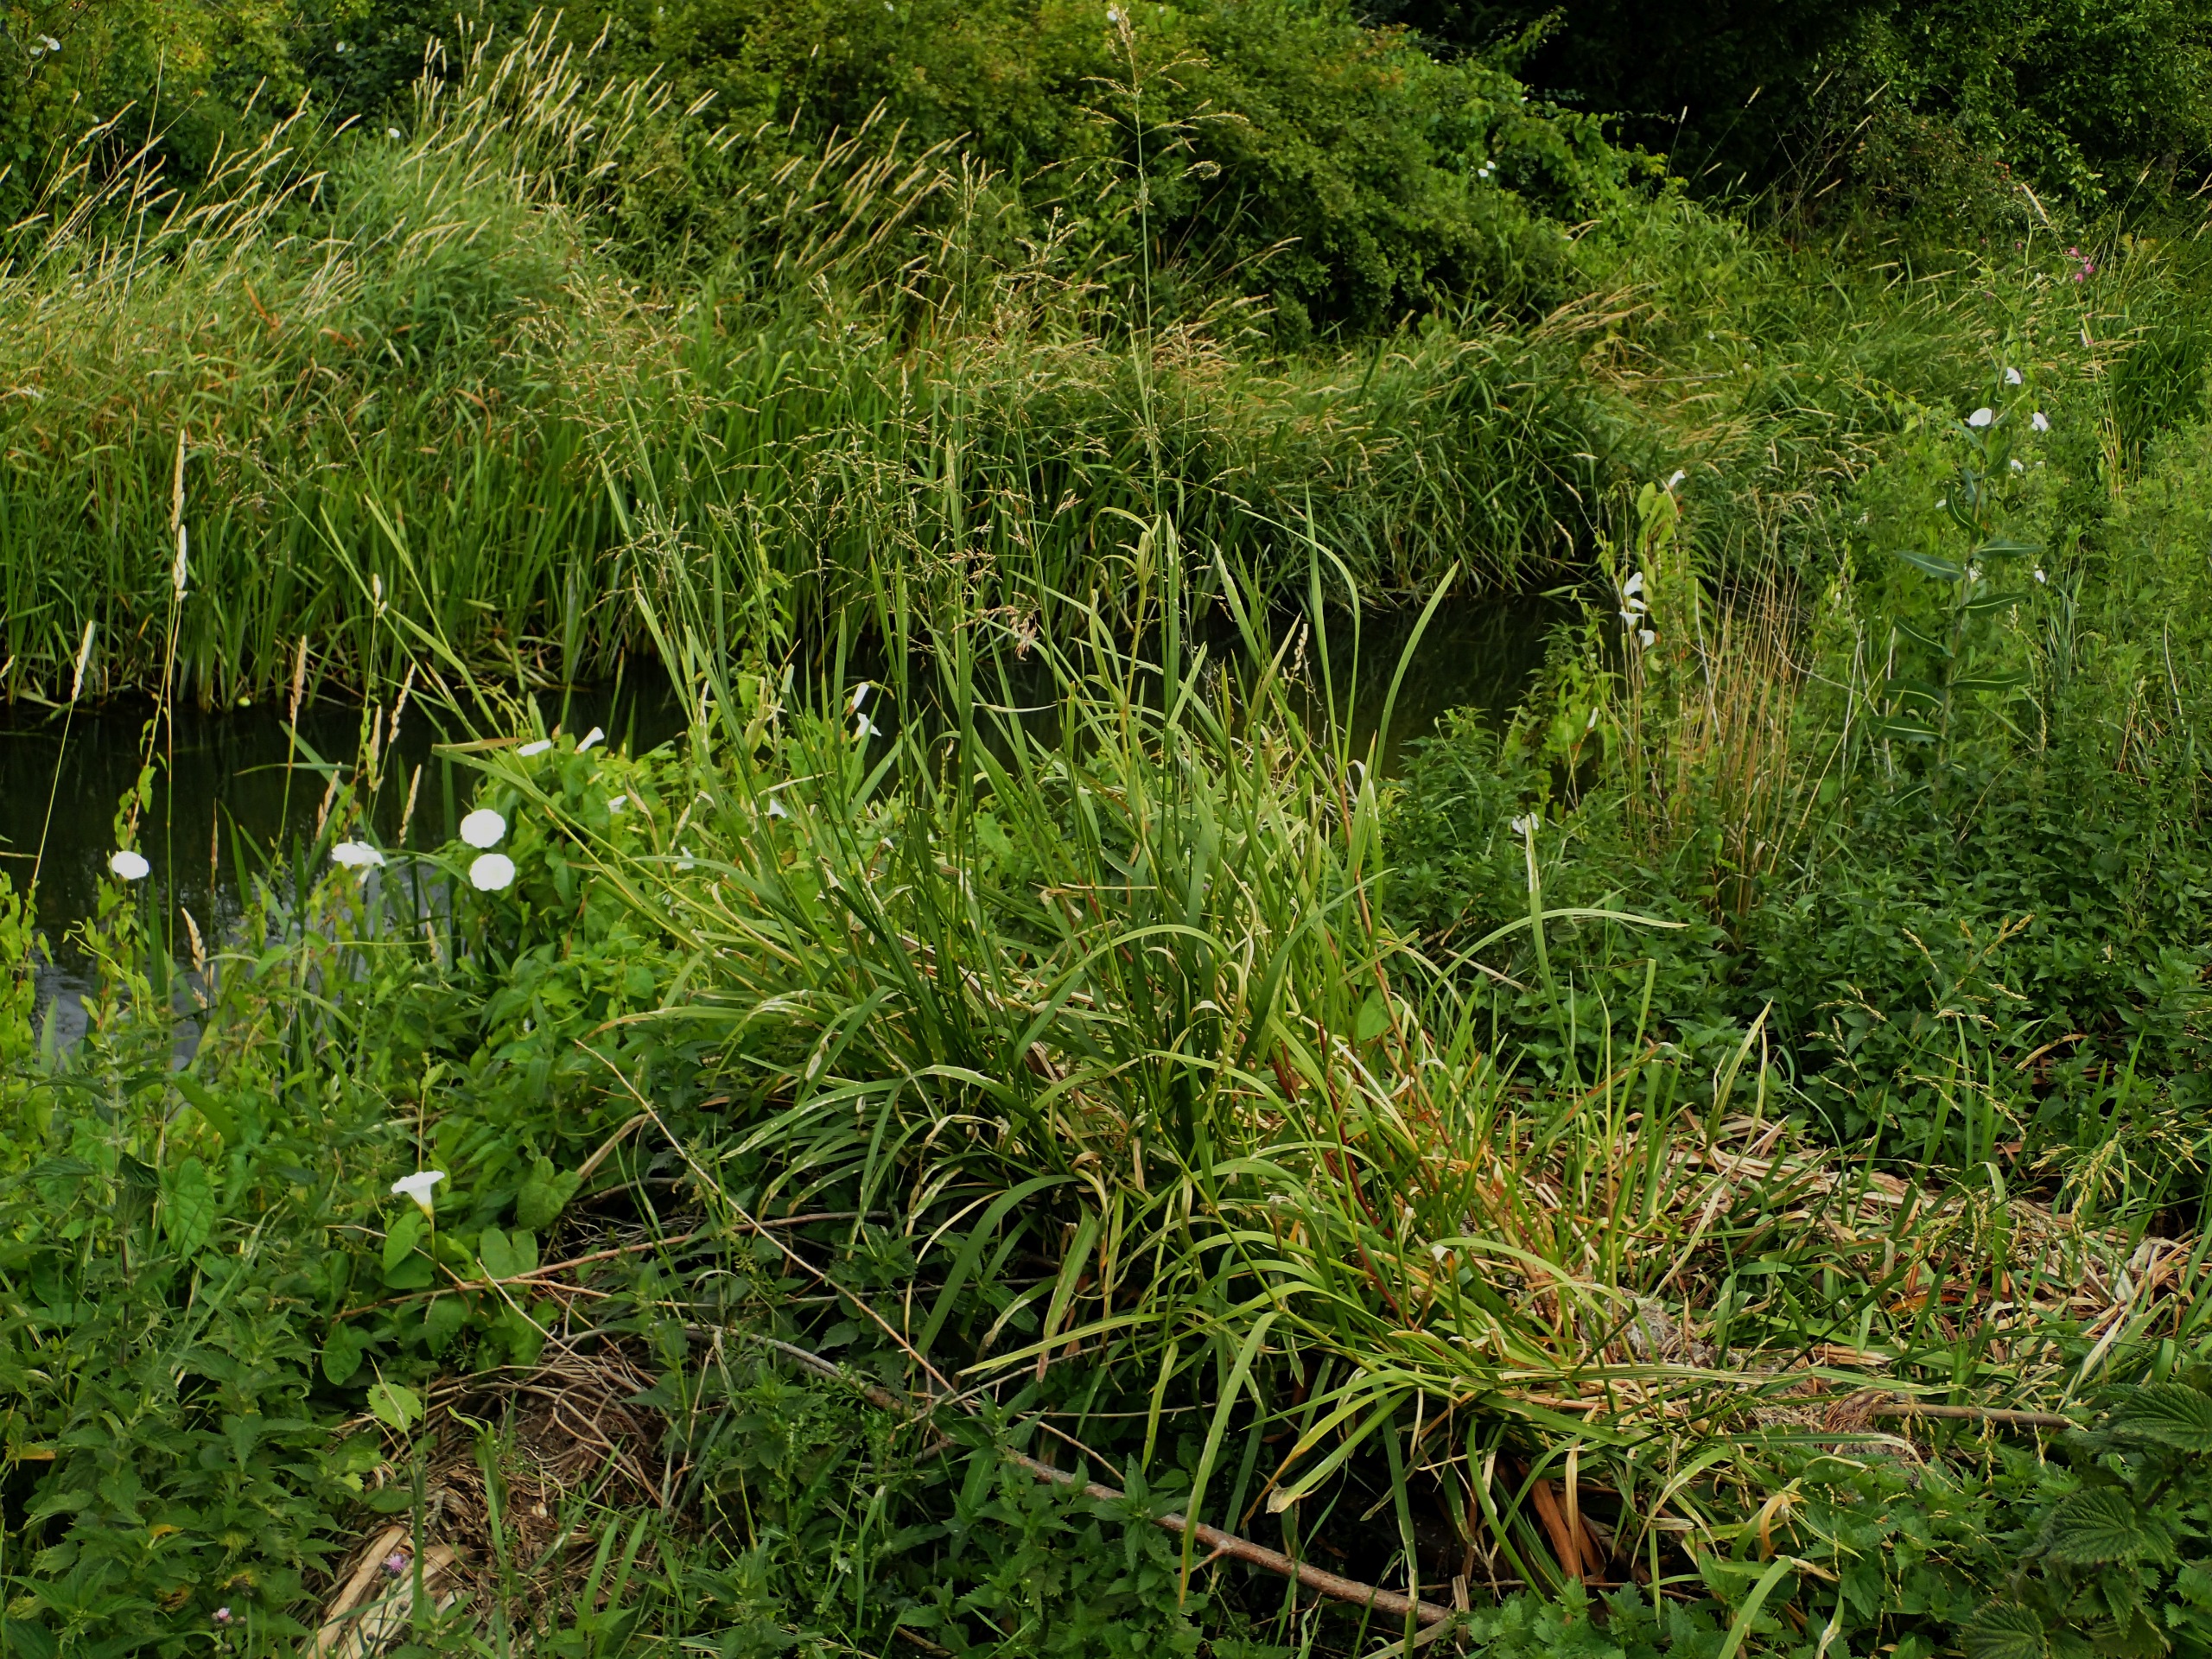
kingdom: Plantae
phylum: Tracheophyta
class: Liliopsida
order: Poales
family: Poaceae
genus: Glyceria
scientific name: Glyceria maxima
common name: Høj sødgræs
